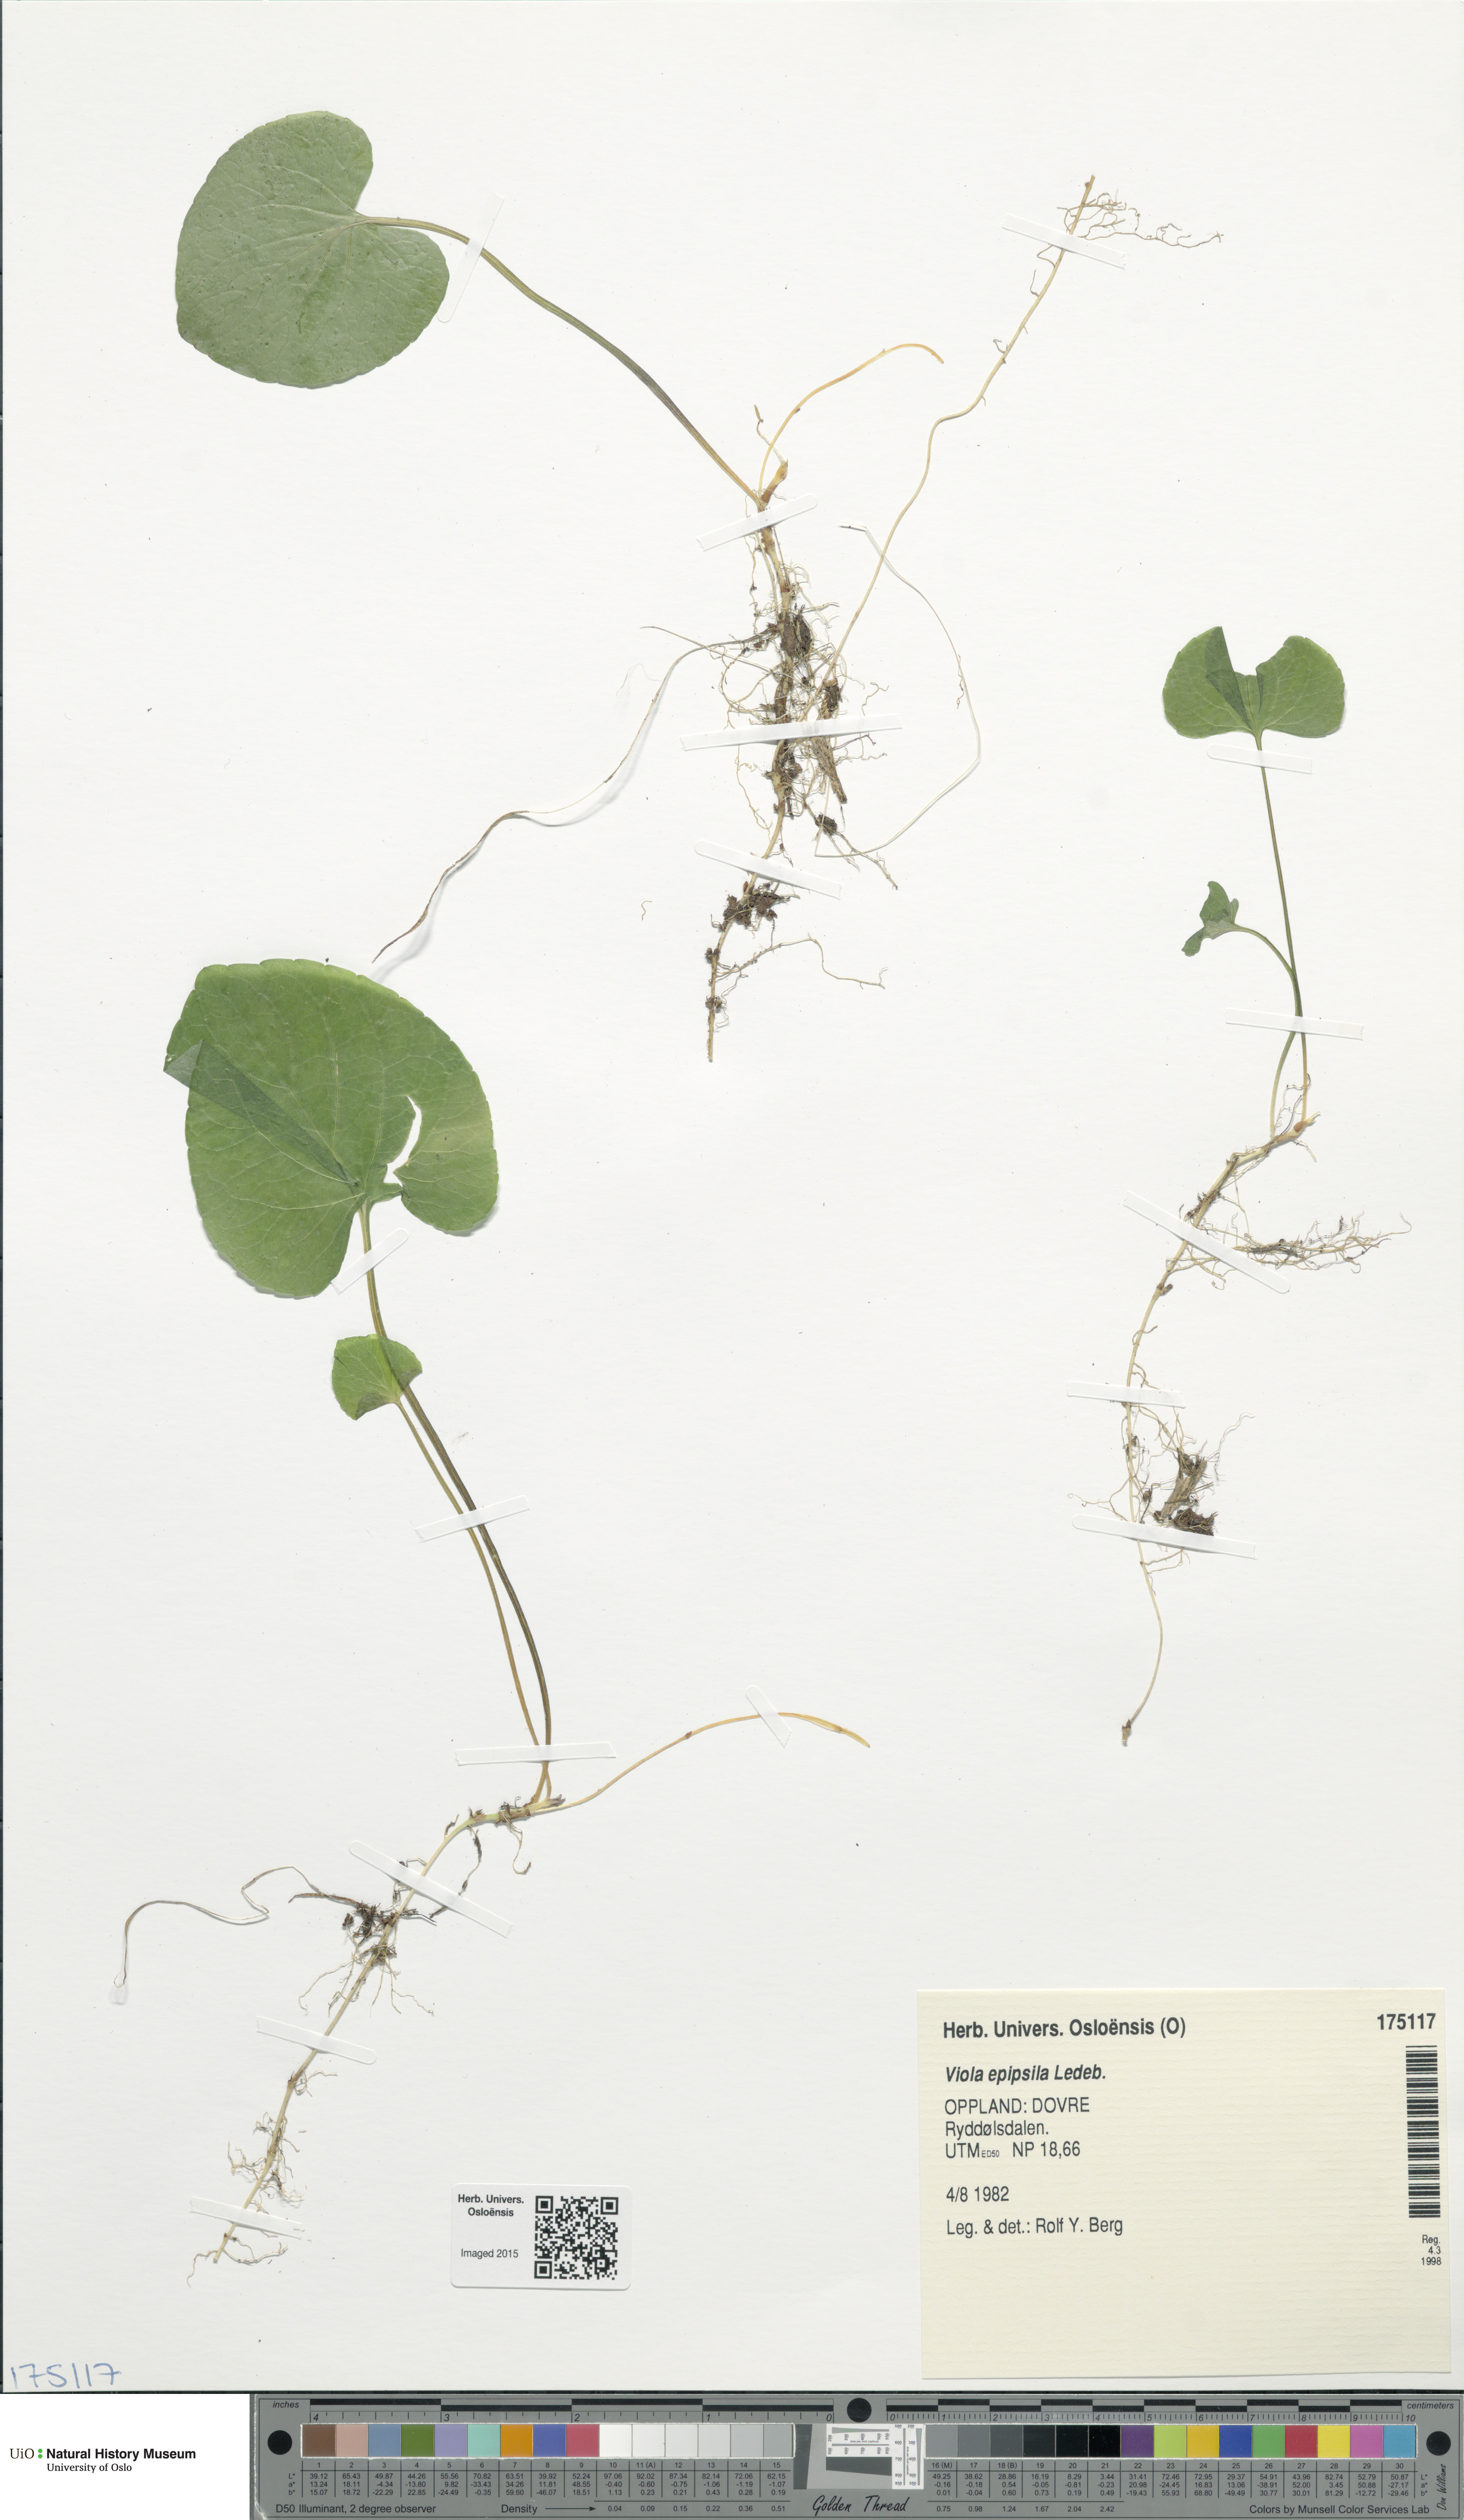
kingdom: Plantae
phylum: Tracheophyta
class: Magnoliopsida
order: Malpighiales
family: Violaceae
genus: Viola
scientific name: Viola epipsila
